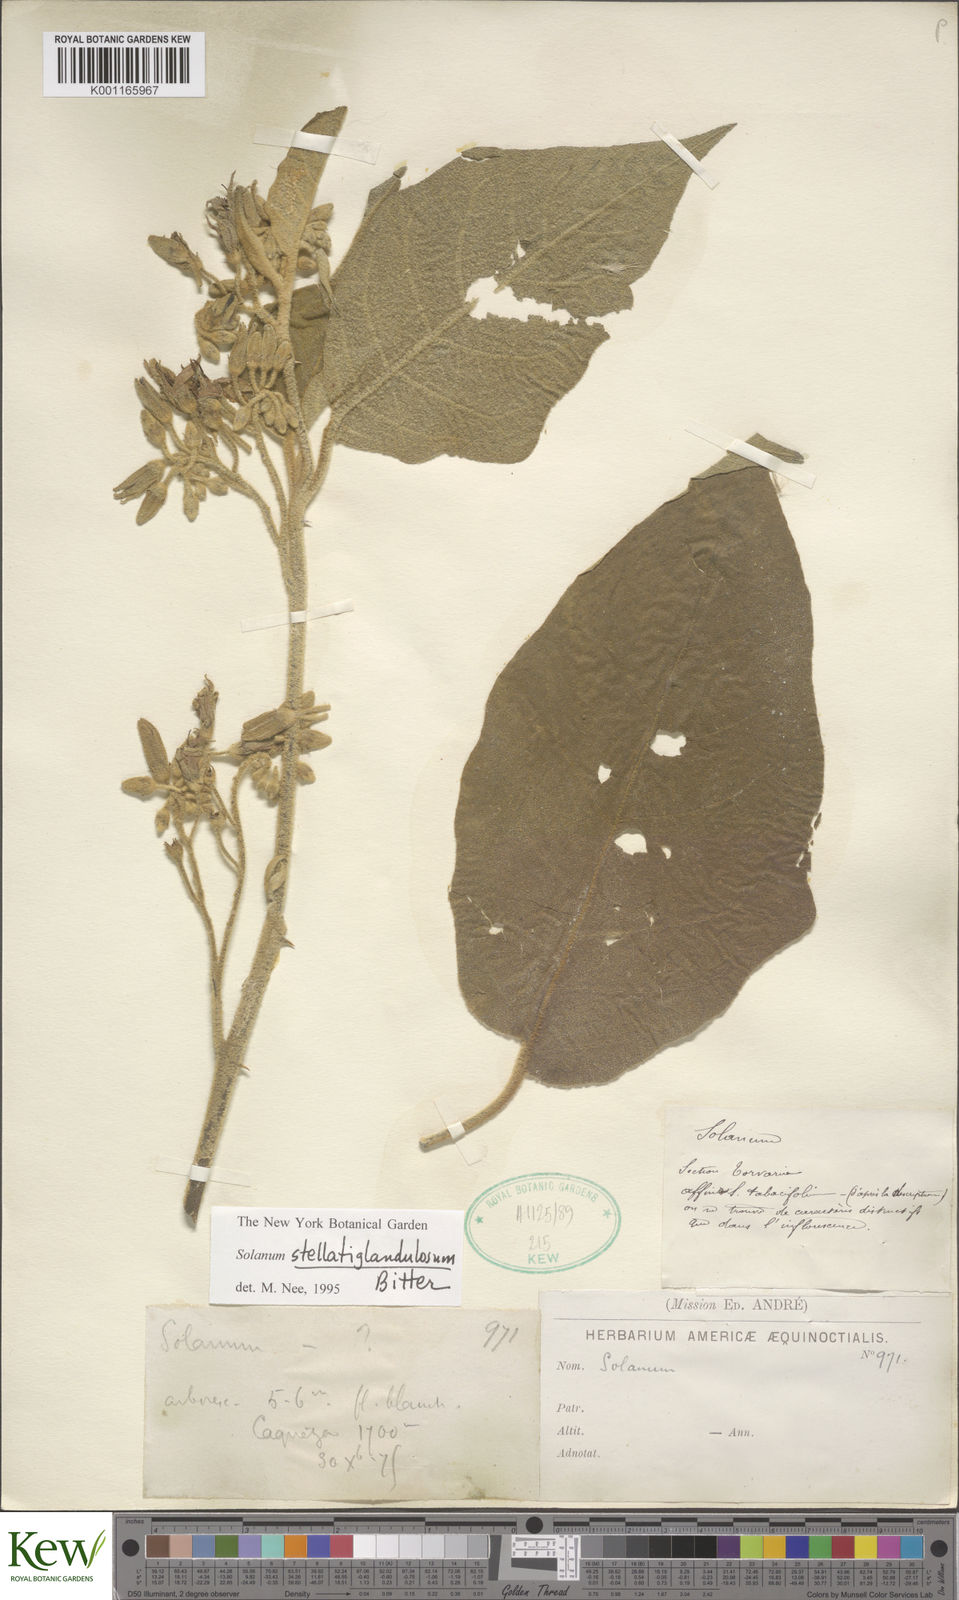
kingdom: Plantae
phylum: Tracheophyta
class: Magnoliopsida
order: Solanales
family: Solanaceae
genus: Solanum
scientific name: Solanum stellatiglandulosum
